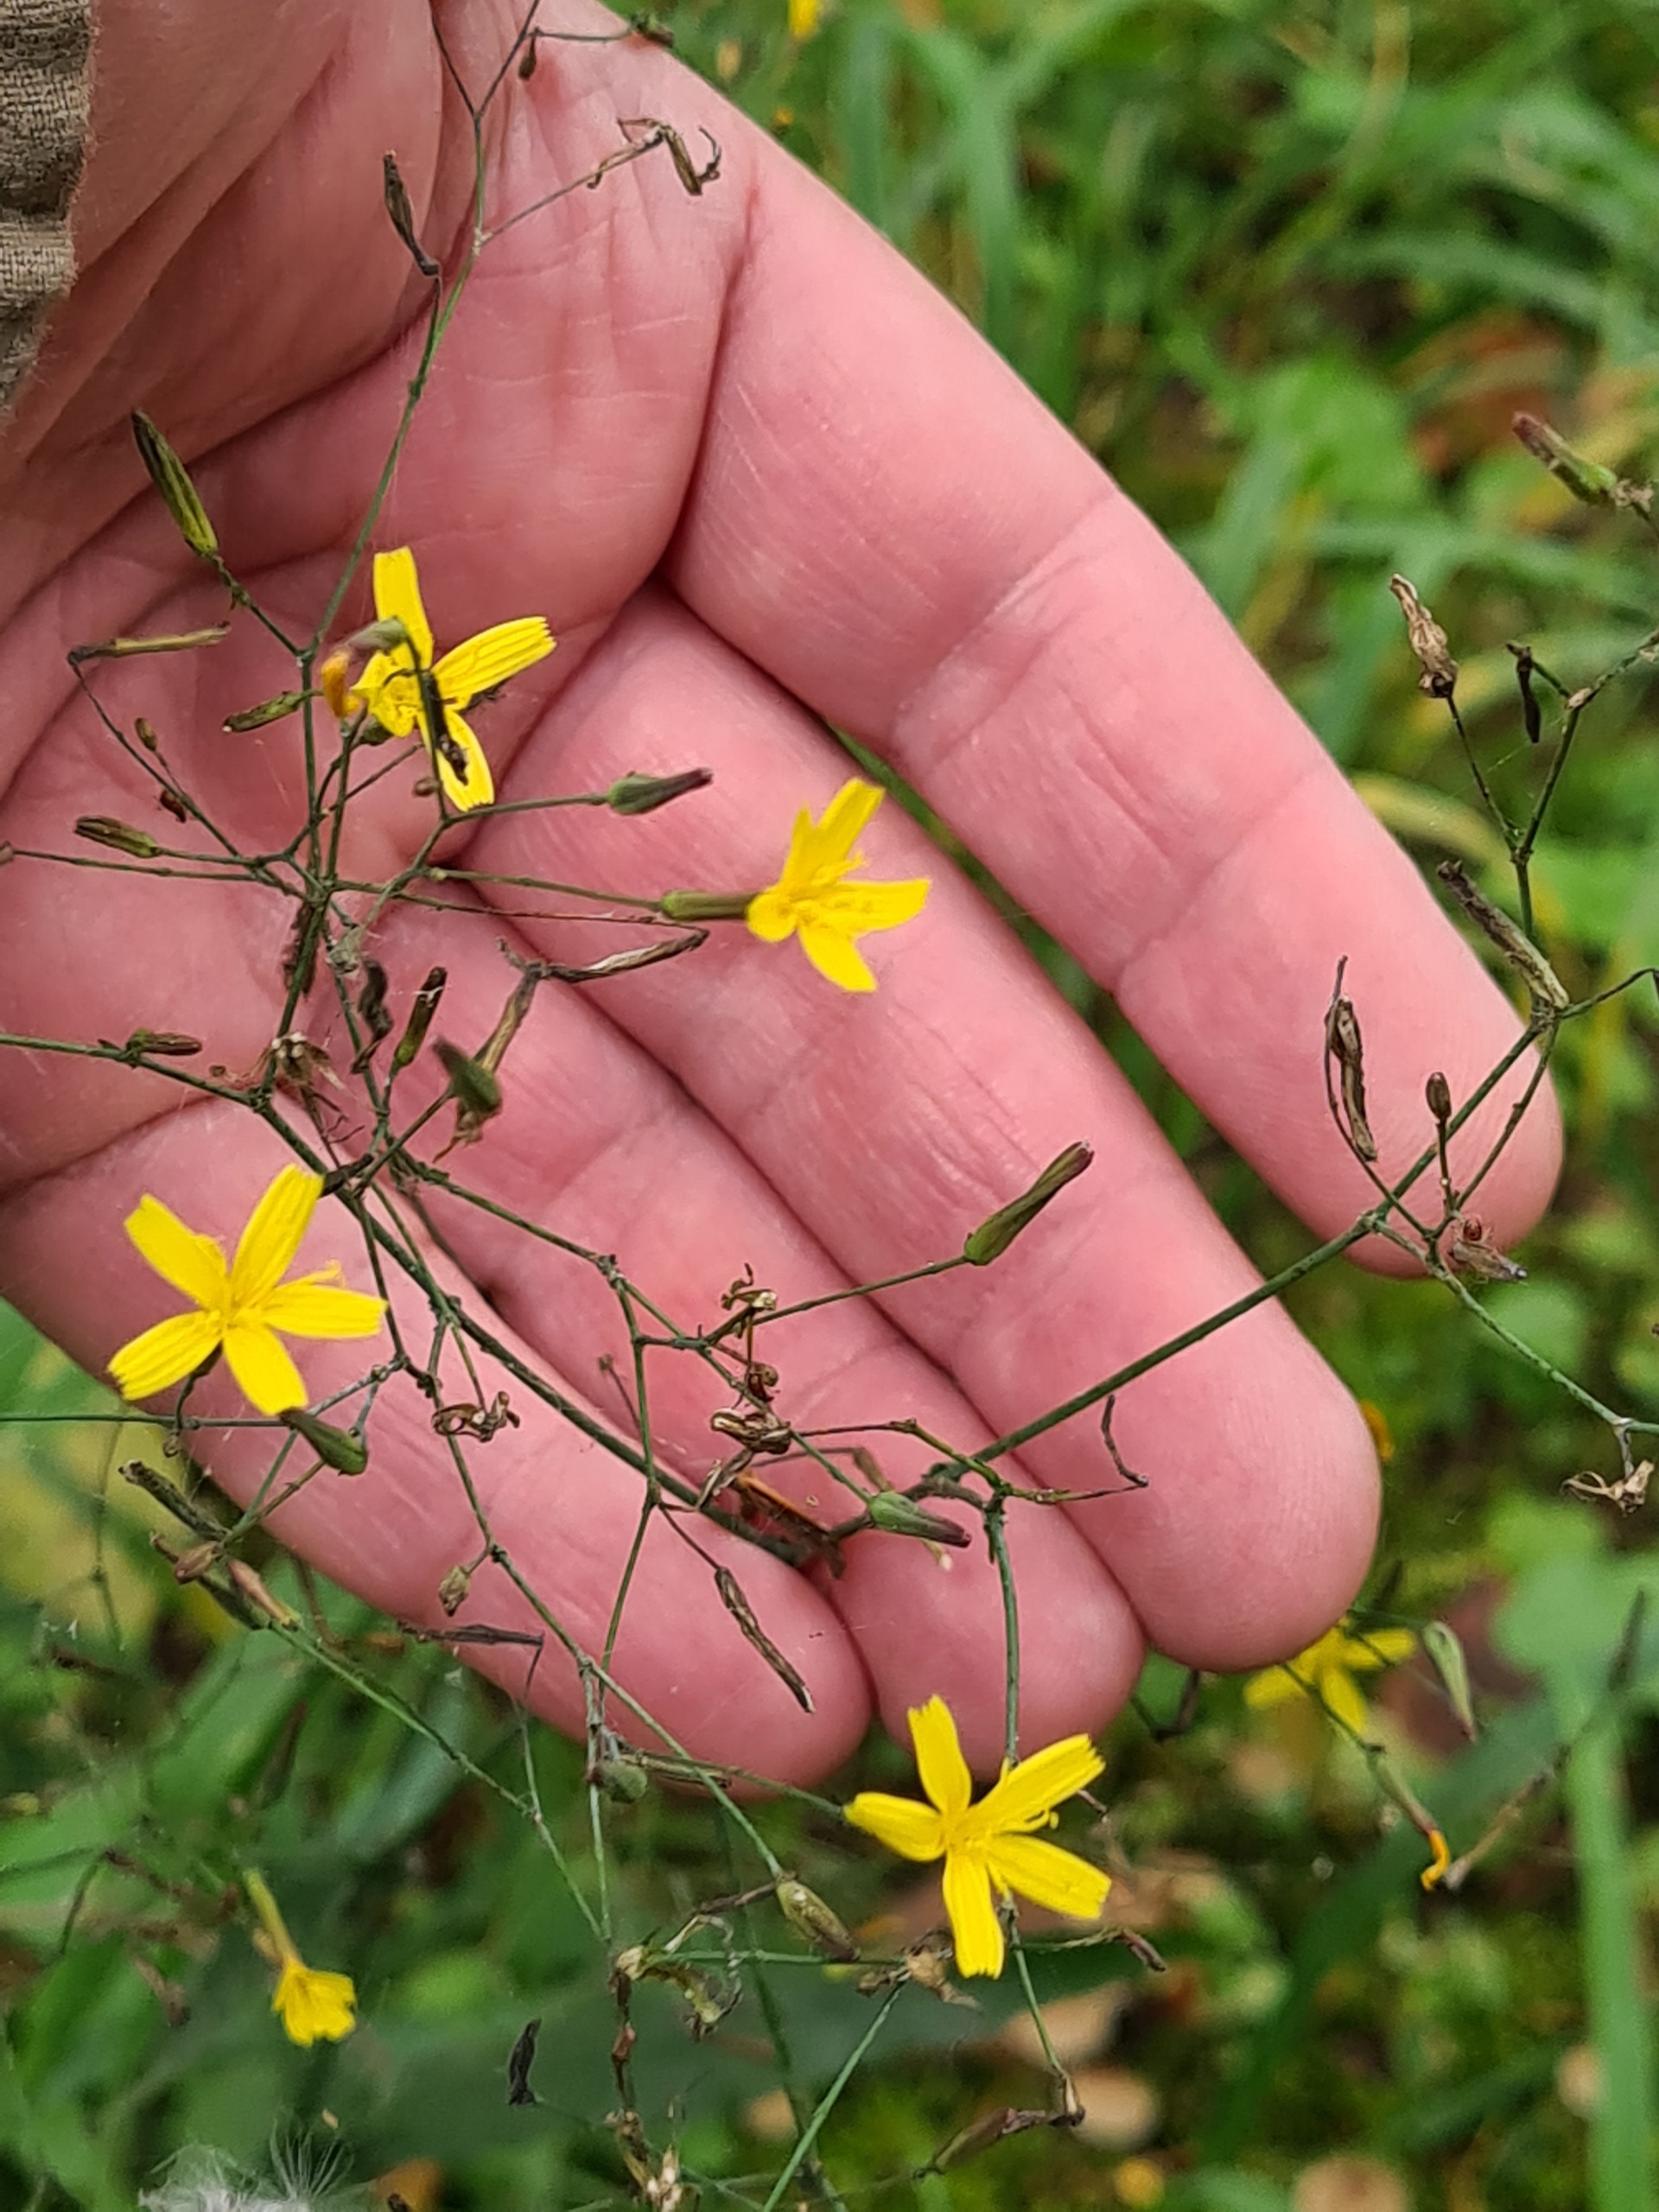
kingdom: Plantae
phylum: Tracheophyta
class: Magnoliopsida
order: Asterales
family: Asteraceae
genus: Mycelis
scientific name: Mycelis muralis
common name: Skov-salat
